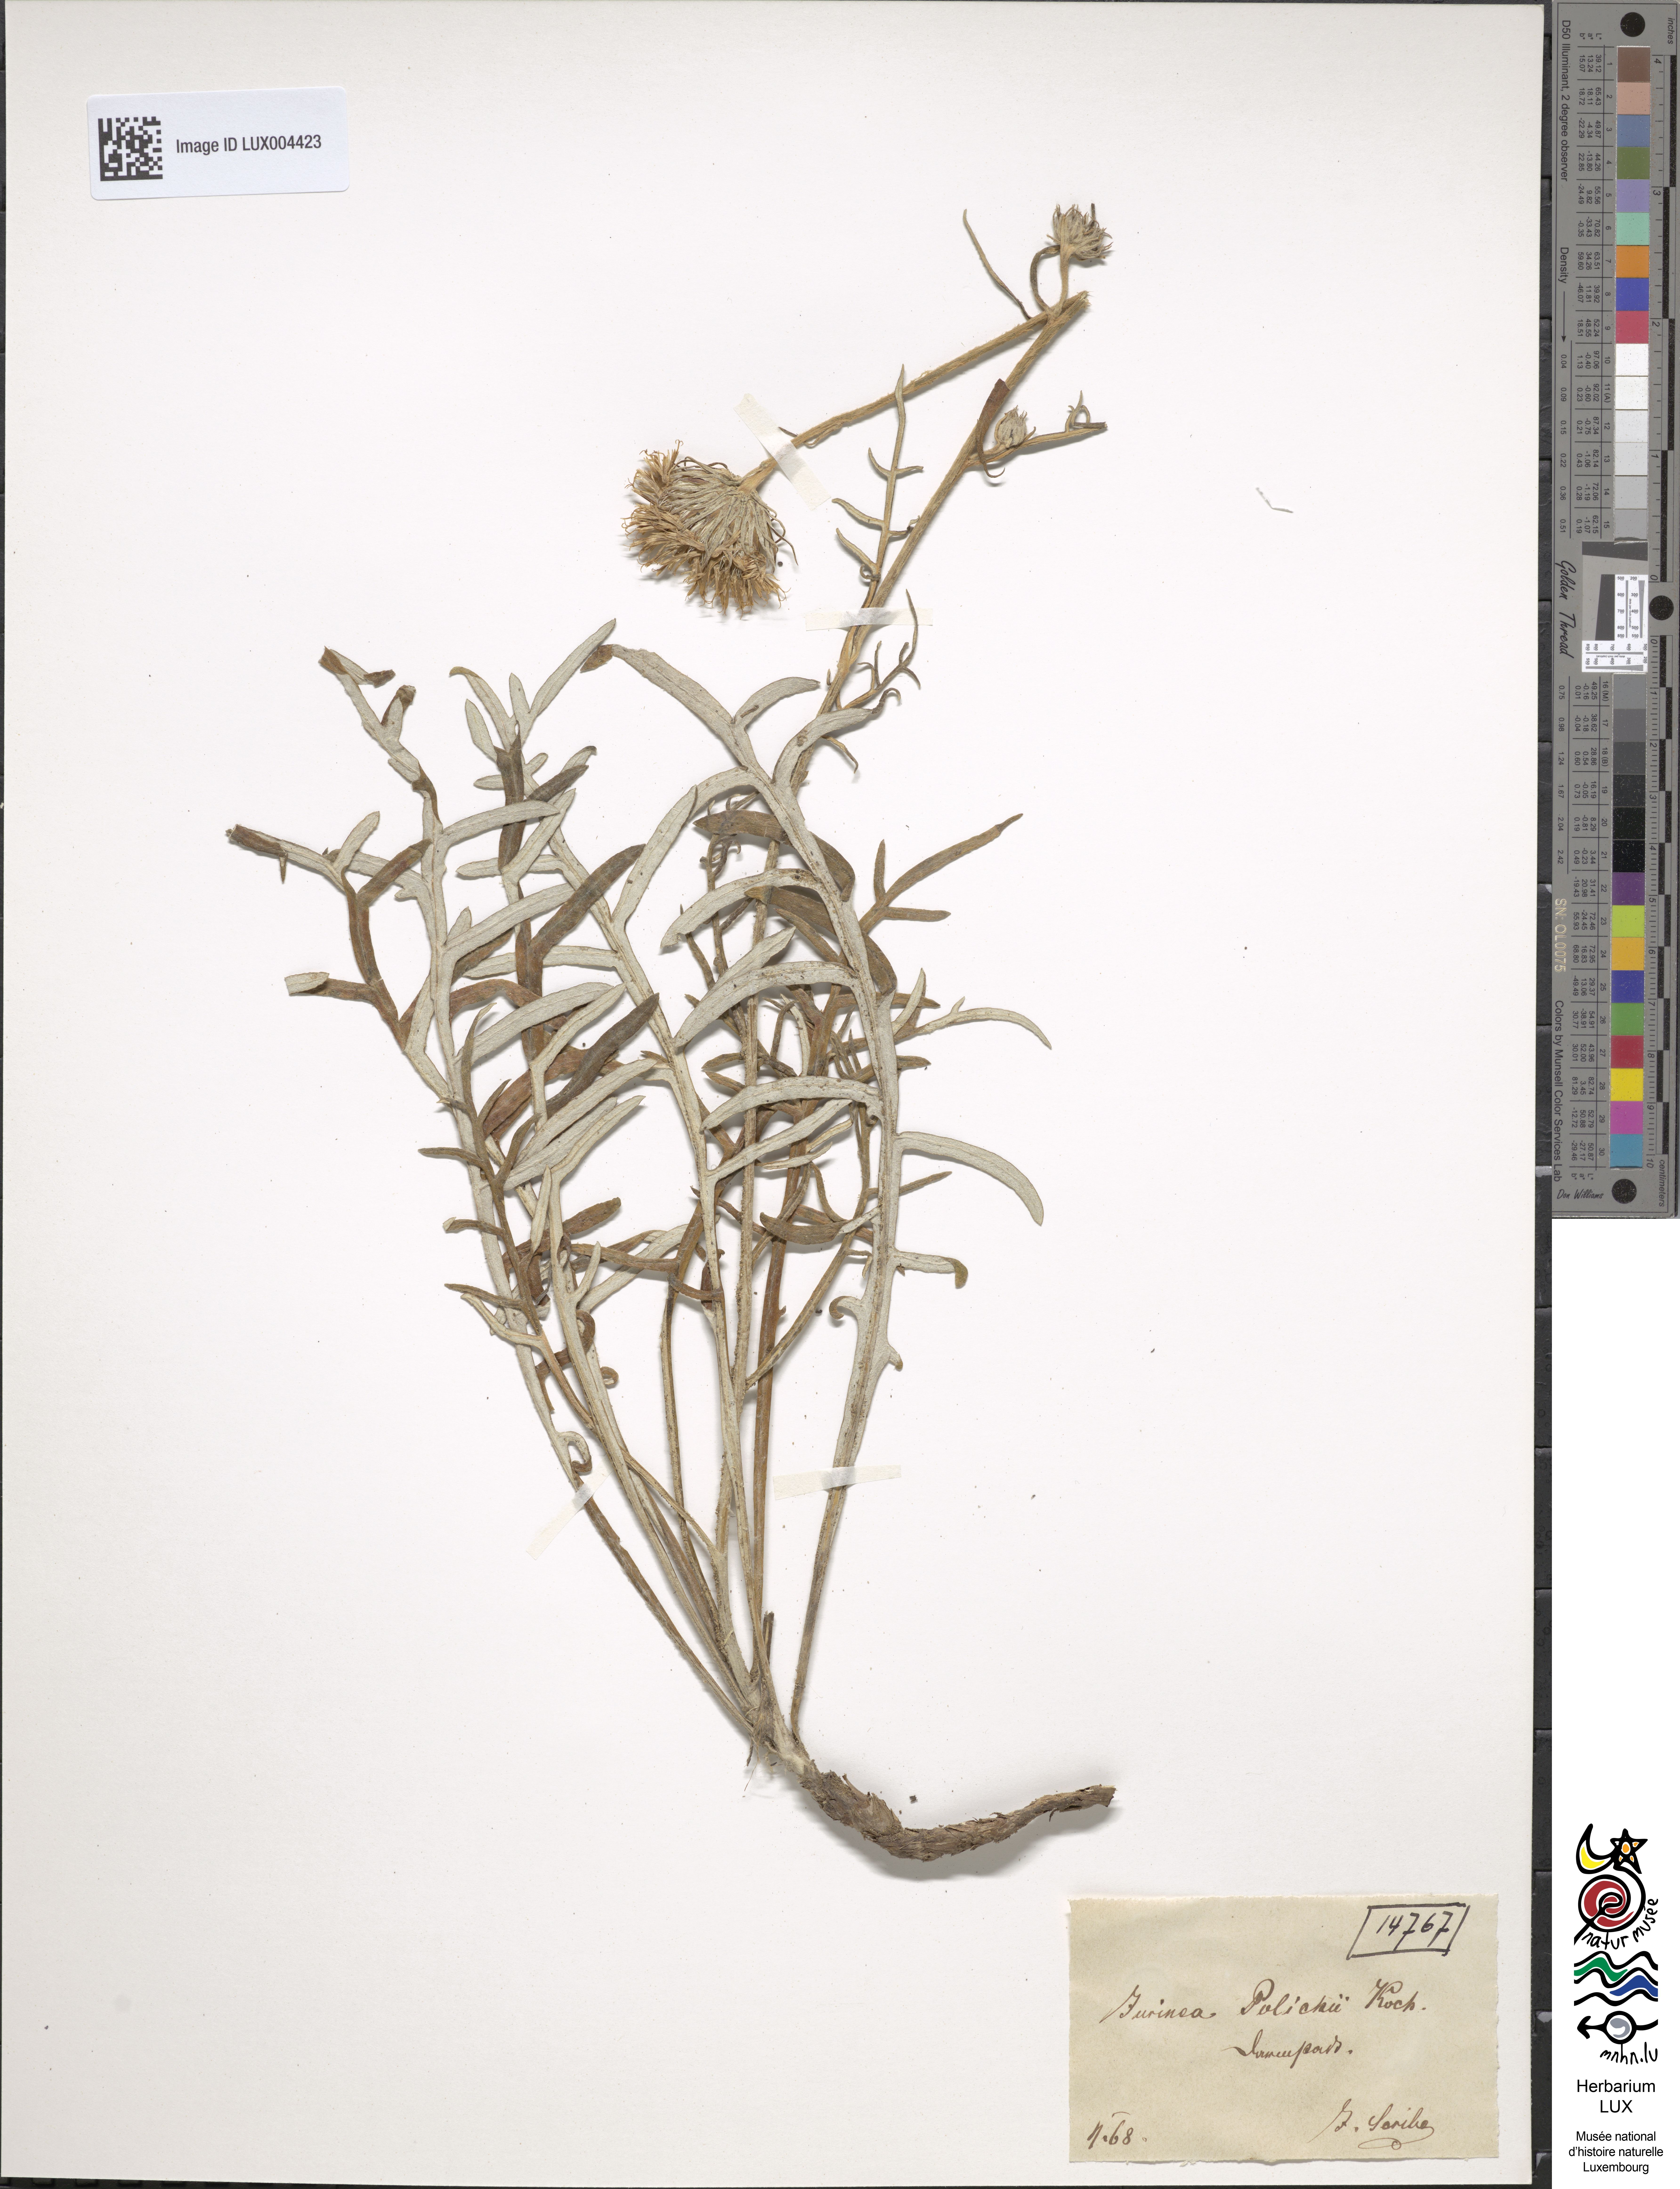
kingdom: Plantae
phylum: Tracheophyta
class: Magnoliopsida
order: Asterales
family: Asteraceae
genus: Jurinea
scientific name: Jurinea cyanoides
